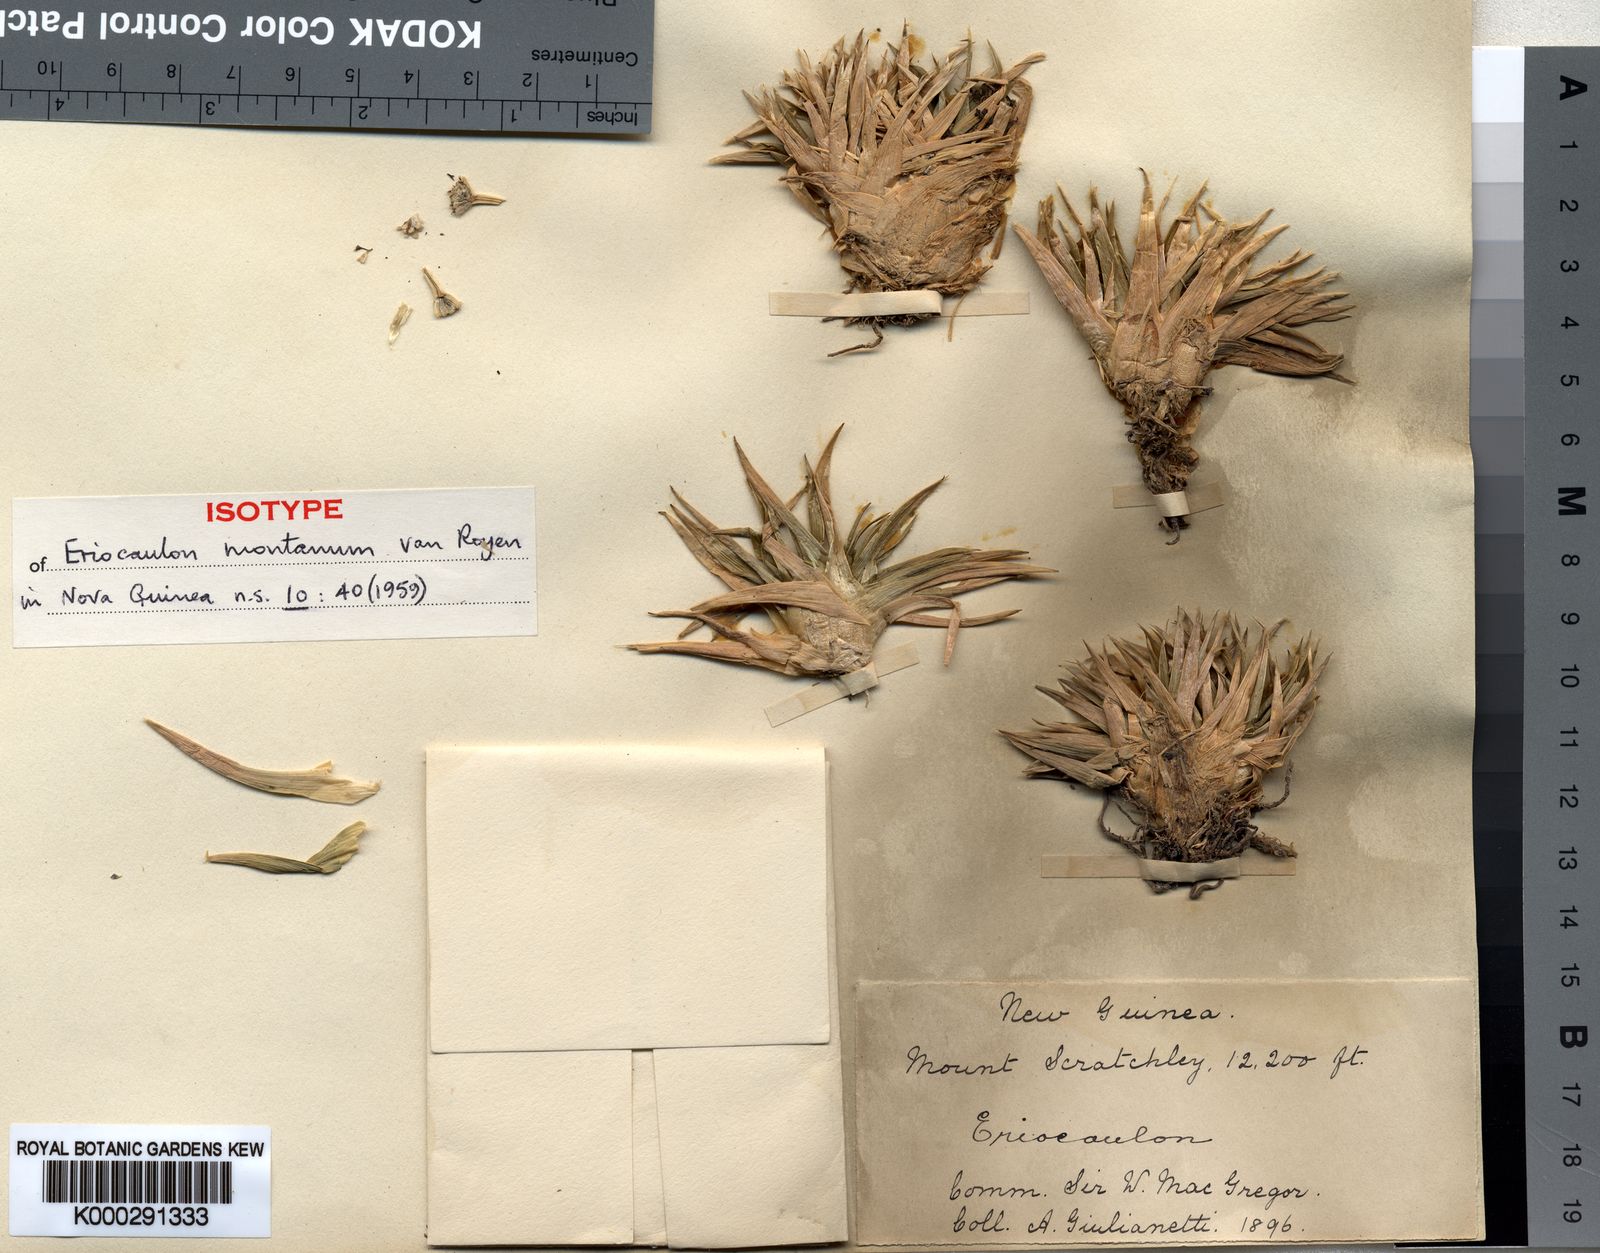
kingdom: Plantae
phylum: Tracheophyta
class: Liliopsida
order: Poales
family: Eriocaulaceae
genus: Eriocaulon
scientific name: Eriocaulon montanum
